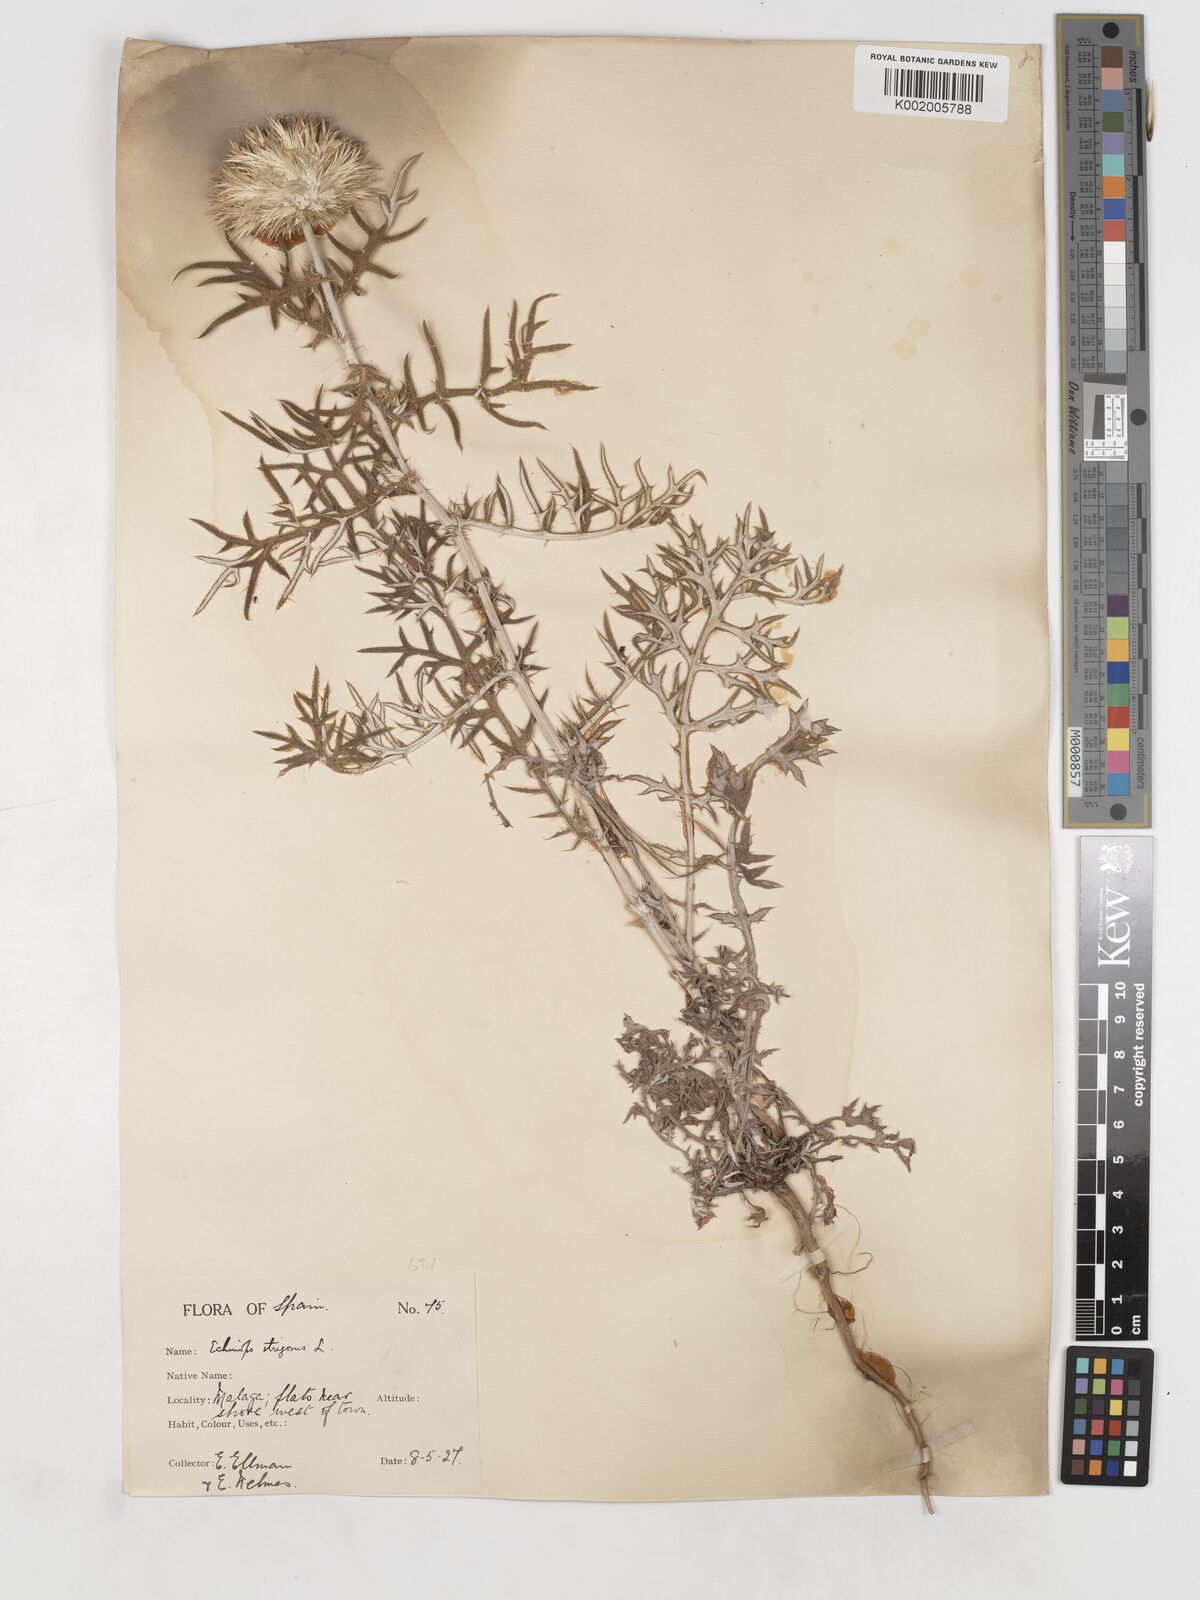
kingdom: Plantae
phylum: Tracheophyta
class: Magnoliopsida
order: Asterales
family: Asteraceae
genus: Echinops
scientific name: Echinops strigosus
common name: Rough-leaf globe thistle
